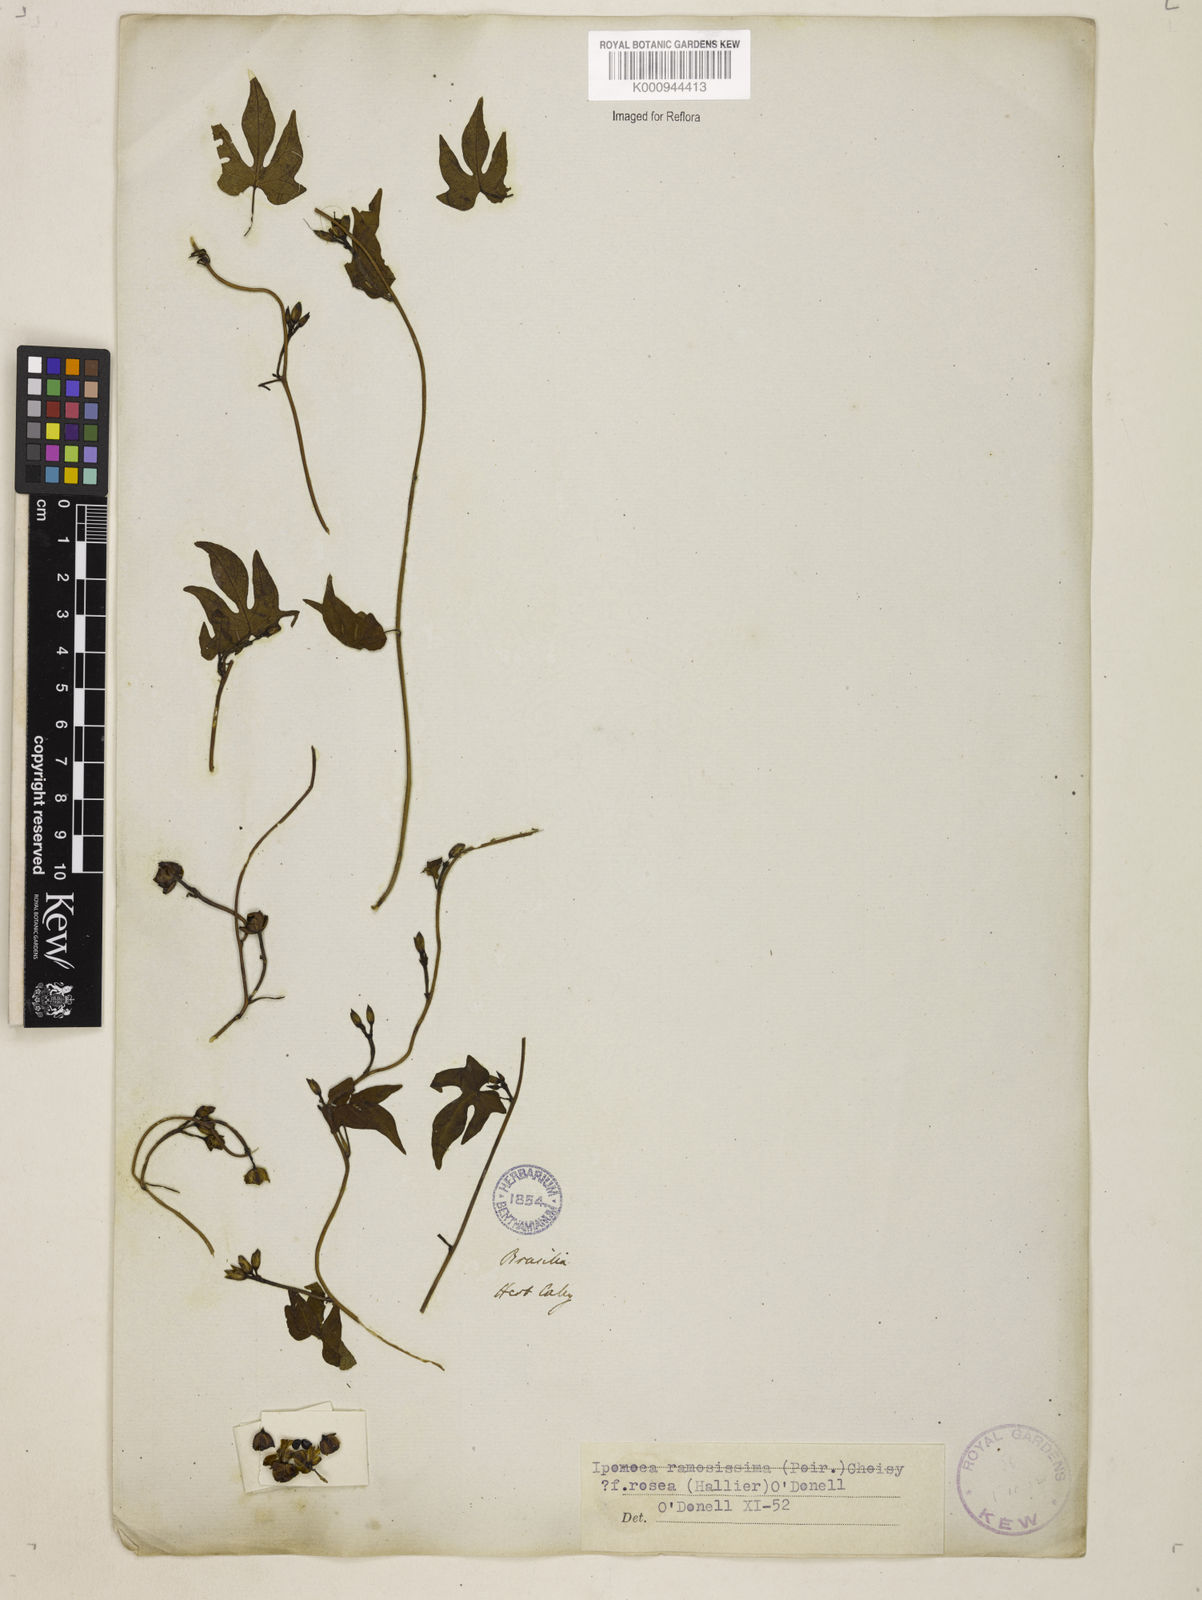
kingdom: Plantae
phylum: Tracheophyta
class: Magnoliopsida
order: Solanales
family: Convolvulaceae
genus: Ipomoea
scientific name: Ipomoea ramosissima
